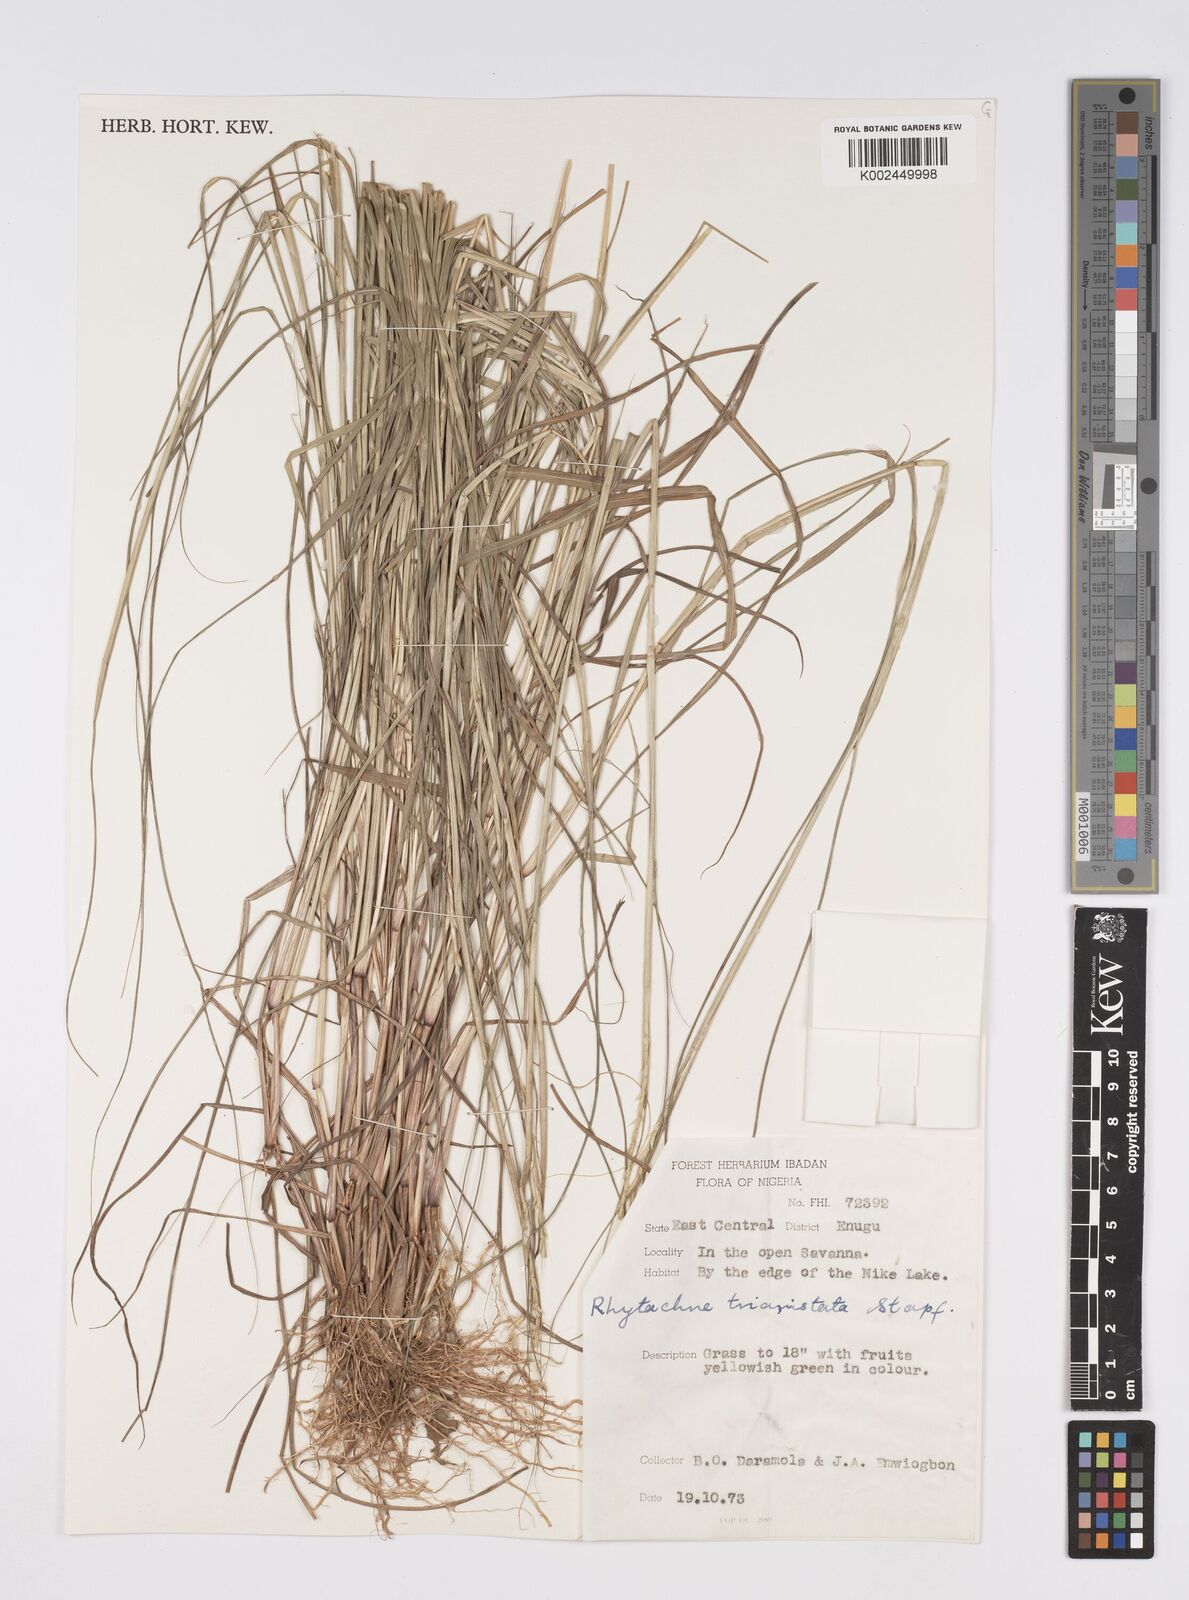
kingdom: Plantae
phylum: Tracheophyta
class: Liliopsida
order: Poales
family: Poaceae
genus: Rhytachne
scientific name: Rhytachne triaristata
